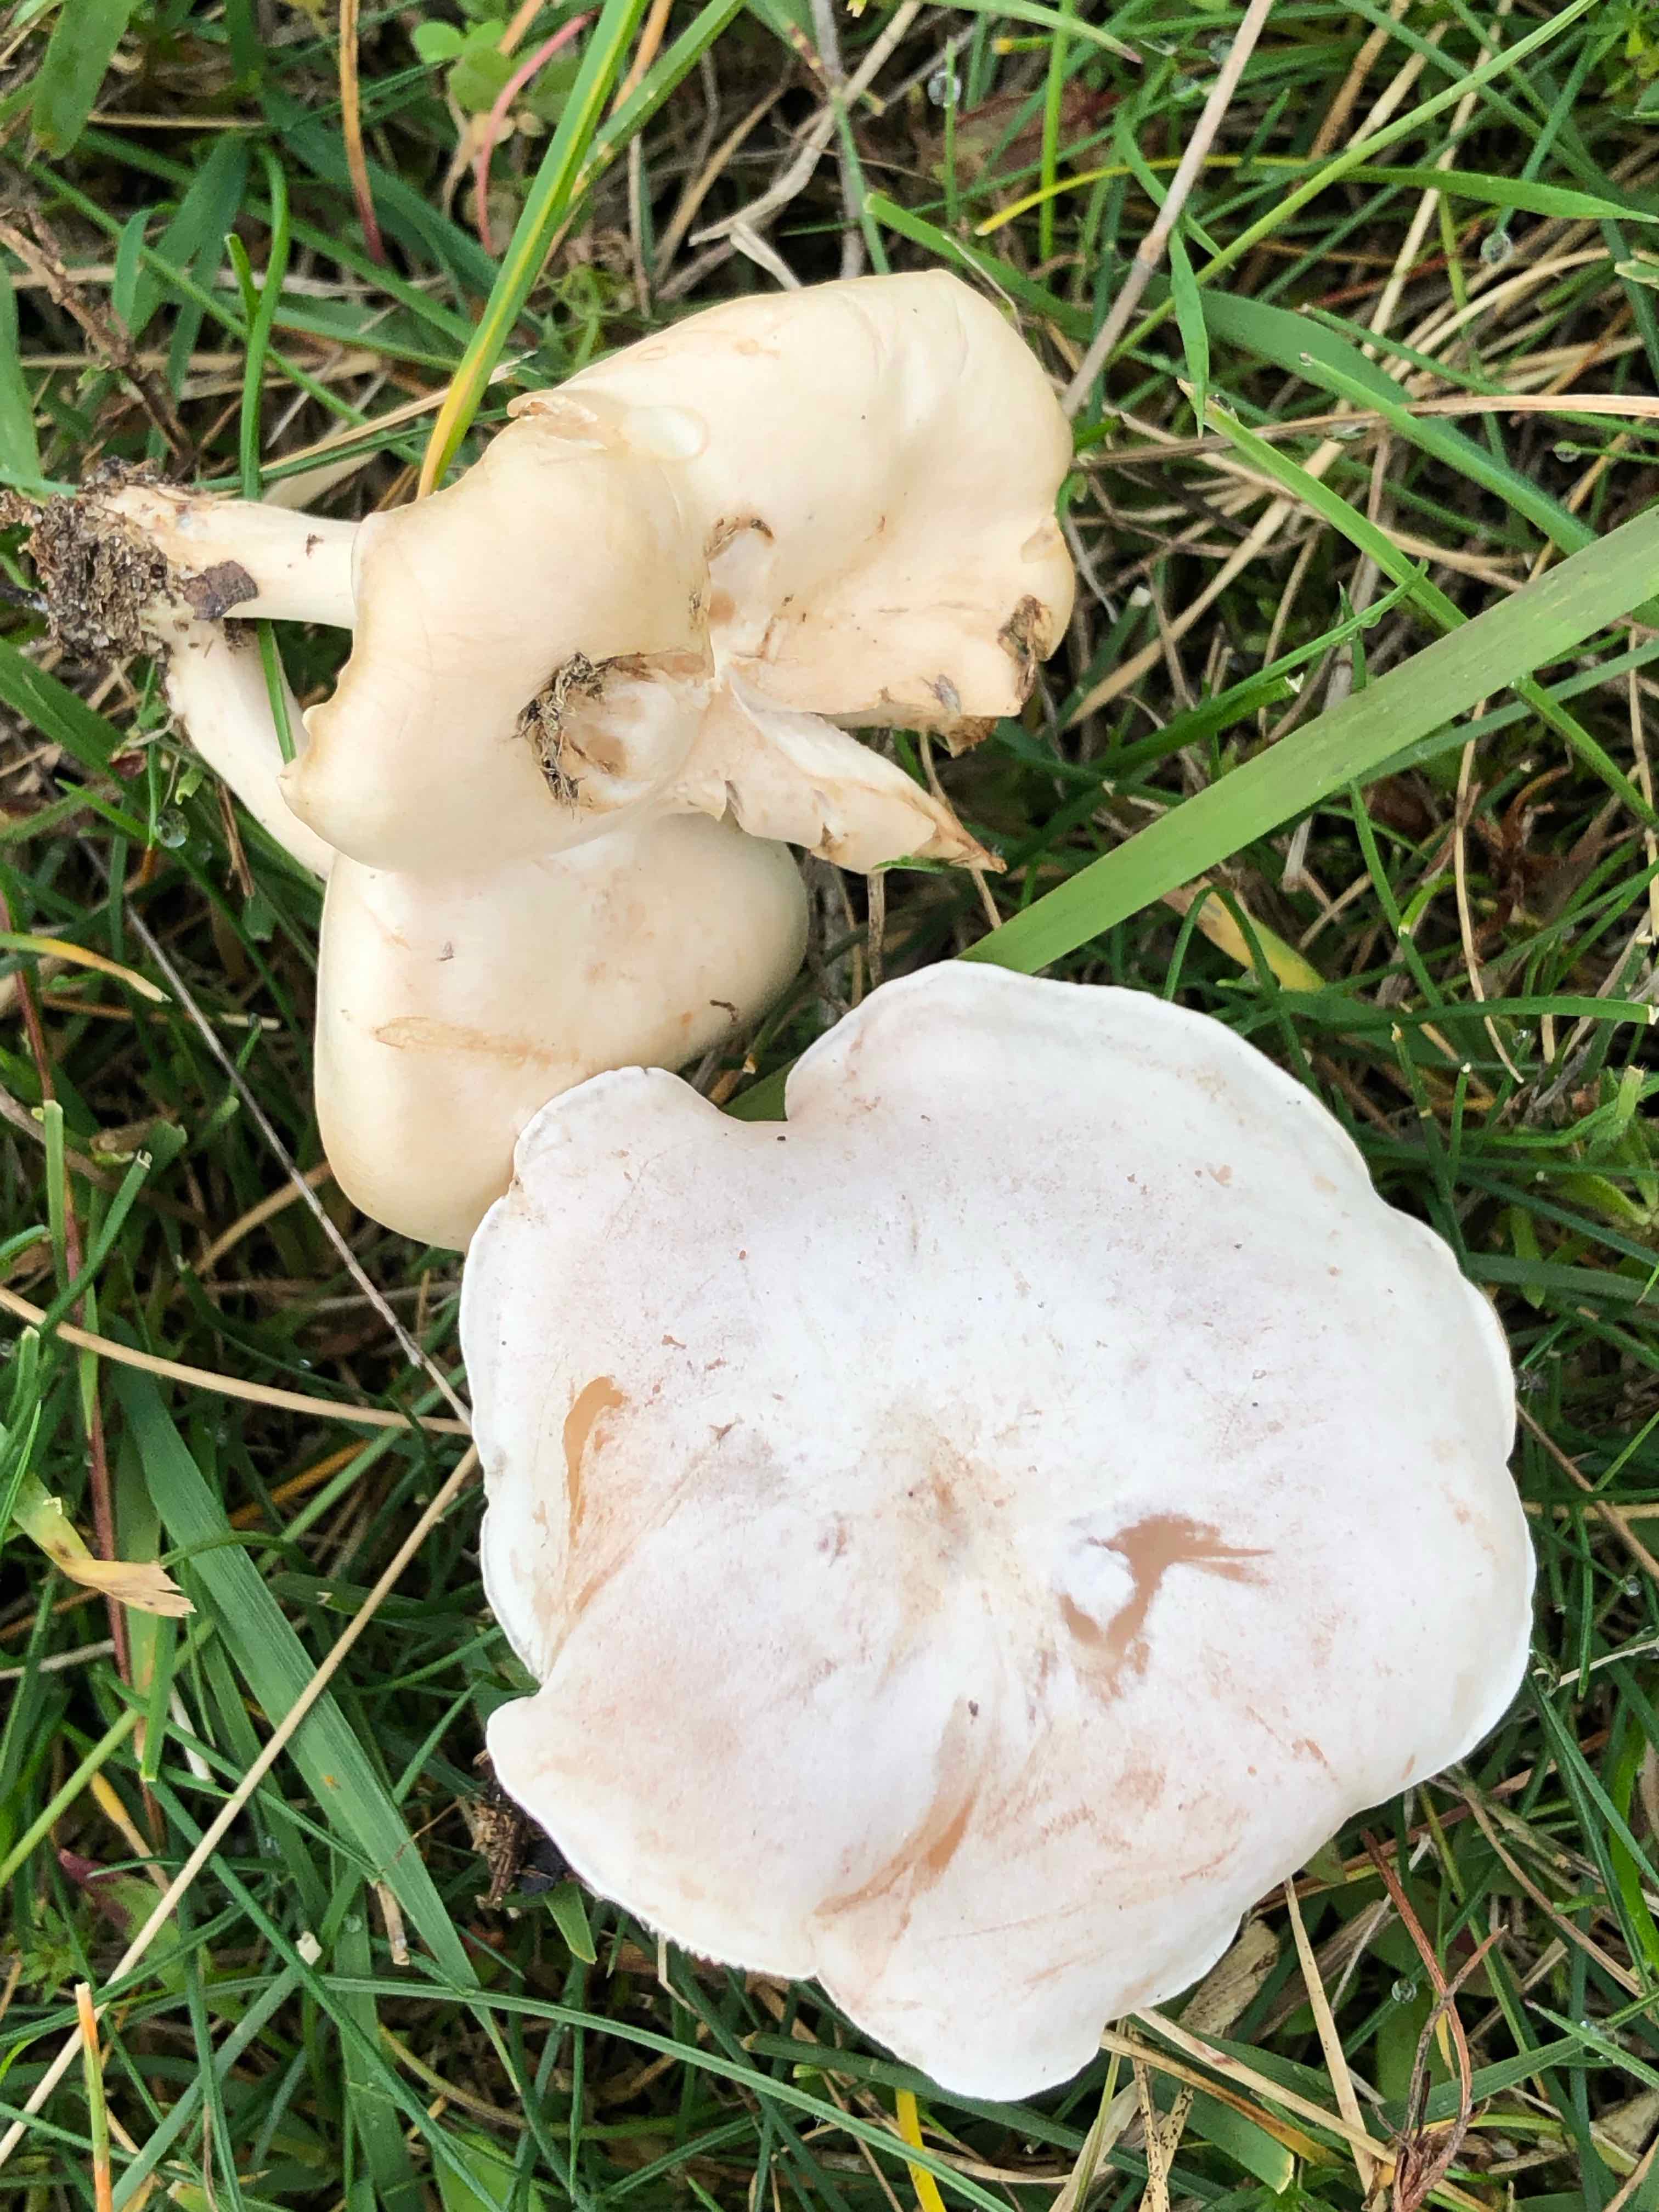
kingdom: Fungi
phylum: Basidiomycota
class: Agaricomycetes
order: Agaricales
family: Tricholomataceae
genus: Leucocybe
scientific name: Leucocybe connata
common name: knippe-tragthat
